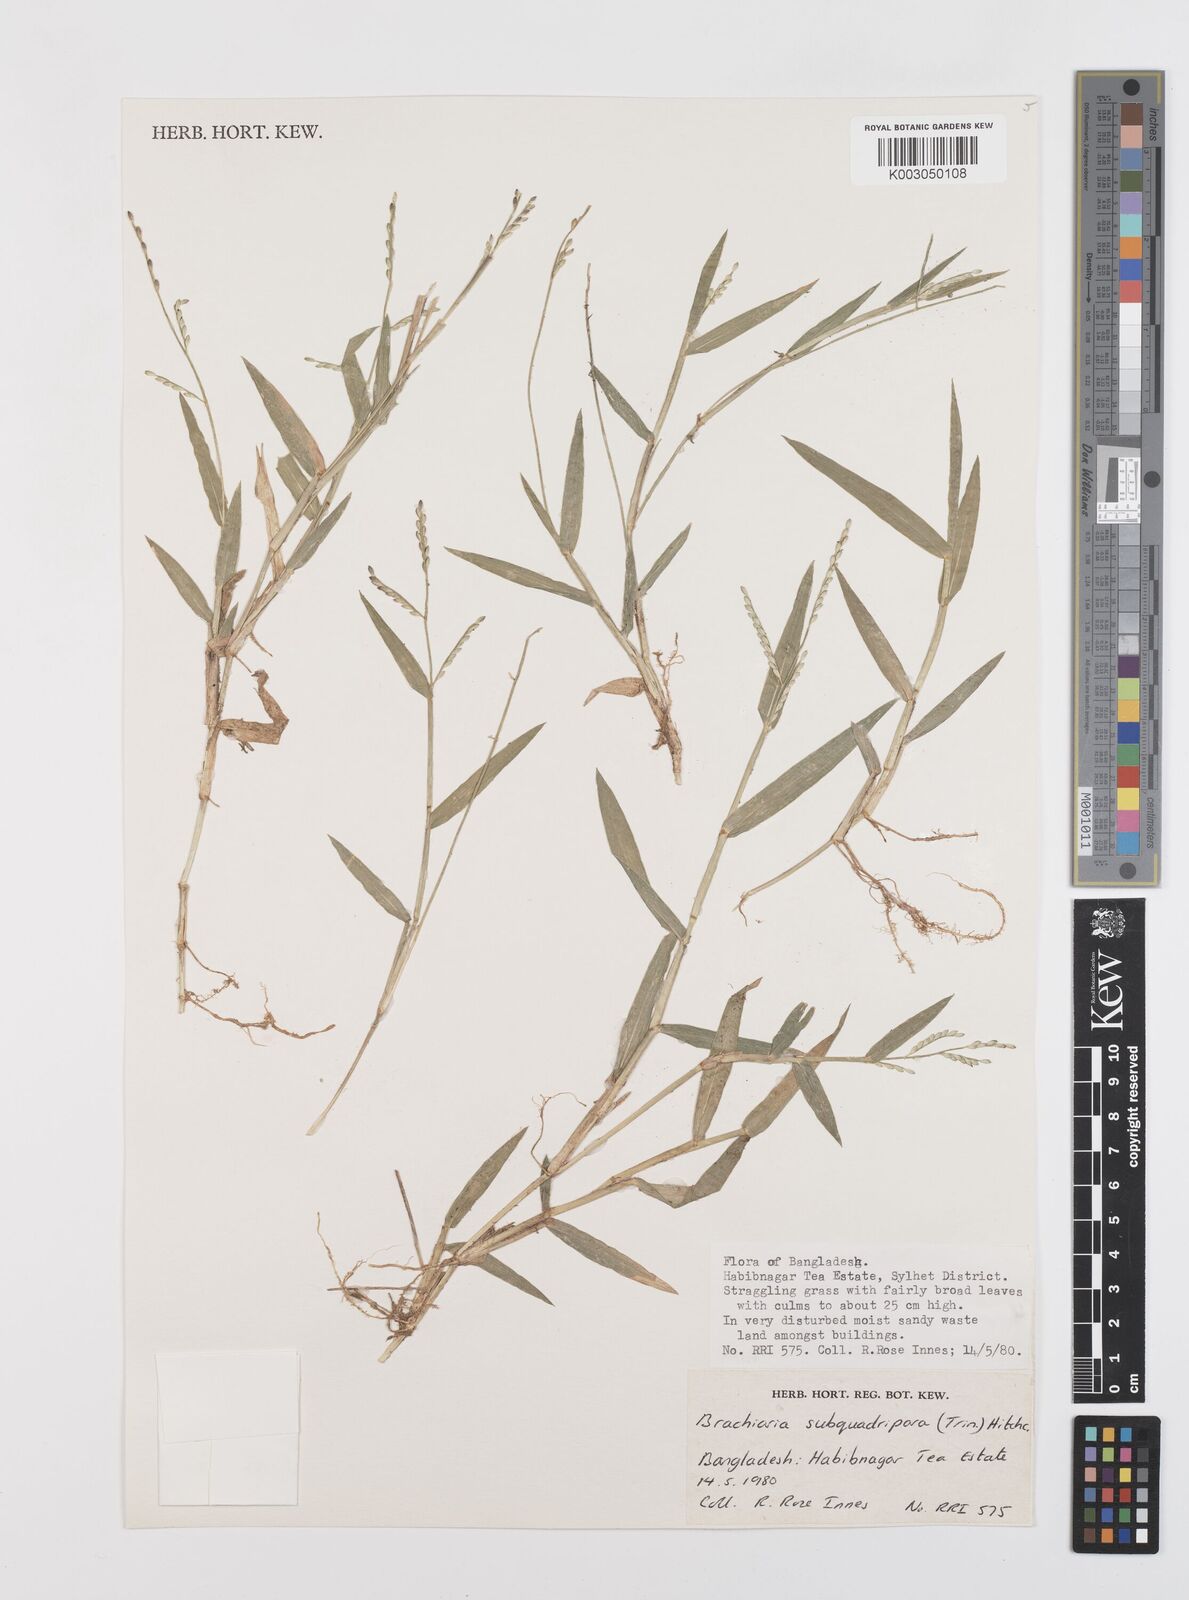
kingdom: Plantae
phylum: Tracheophyta
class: Liliopsida
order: Poales
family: Poaceae
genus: Urochloa
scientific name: Urochloa subquadripara
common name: Armgrass millet
